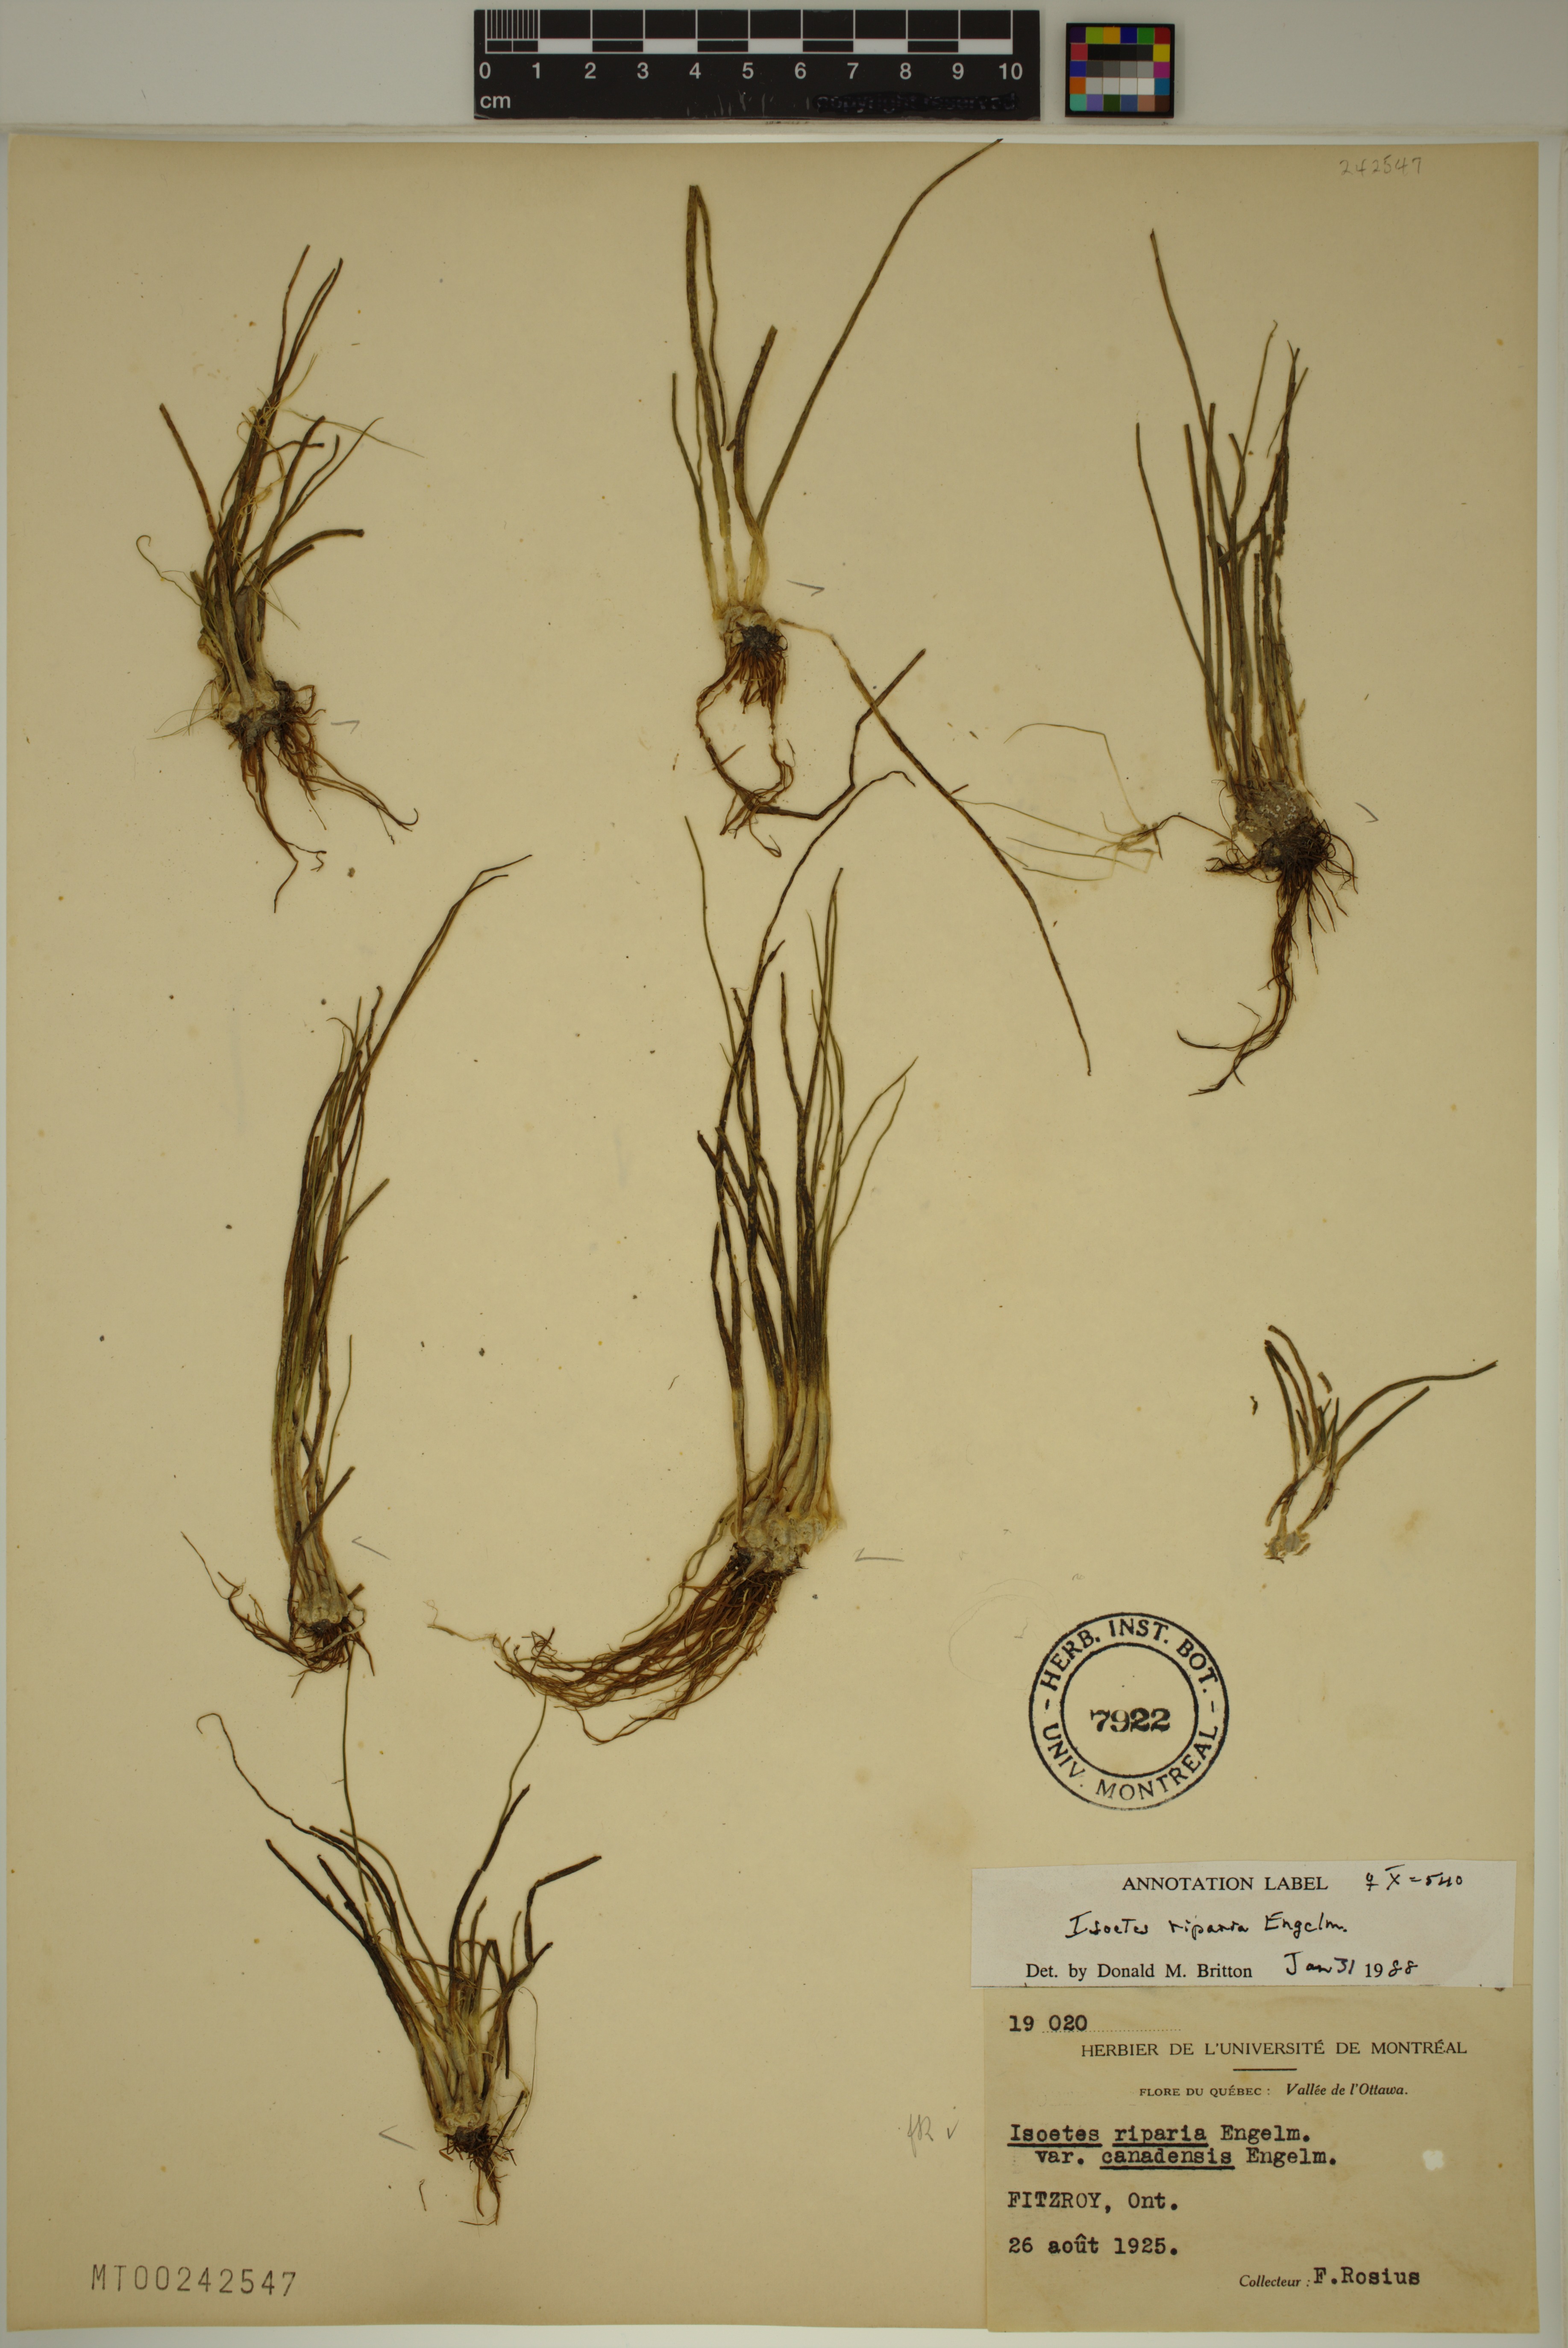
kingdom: Plantae
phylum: Tracheophyta
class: Lycopodiopsida
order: Isoetales
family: Isoetaceae
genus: Isoetes
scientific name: Isoetes septentrionalis
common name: Northern quillwort
